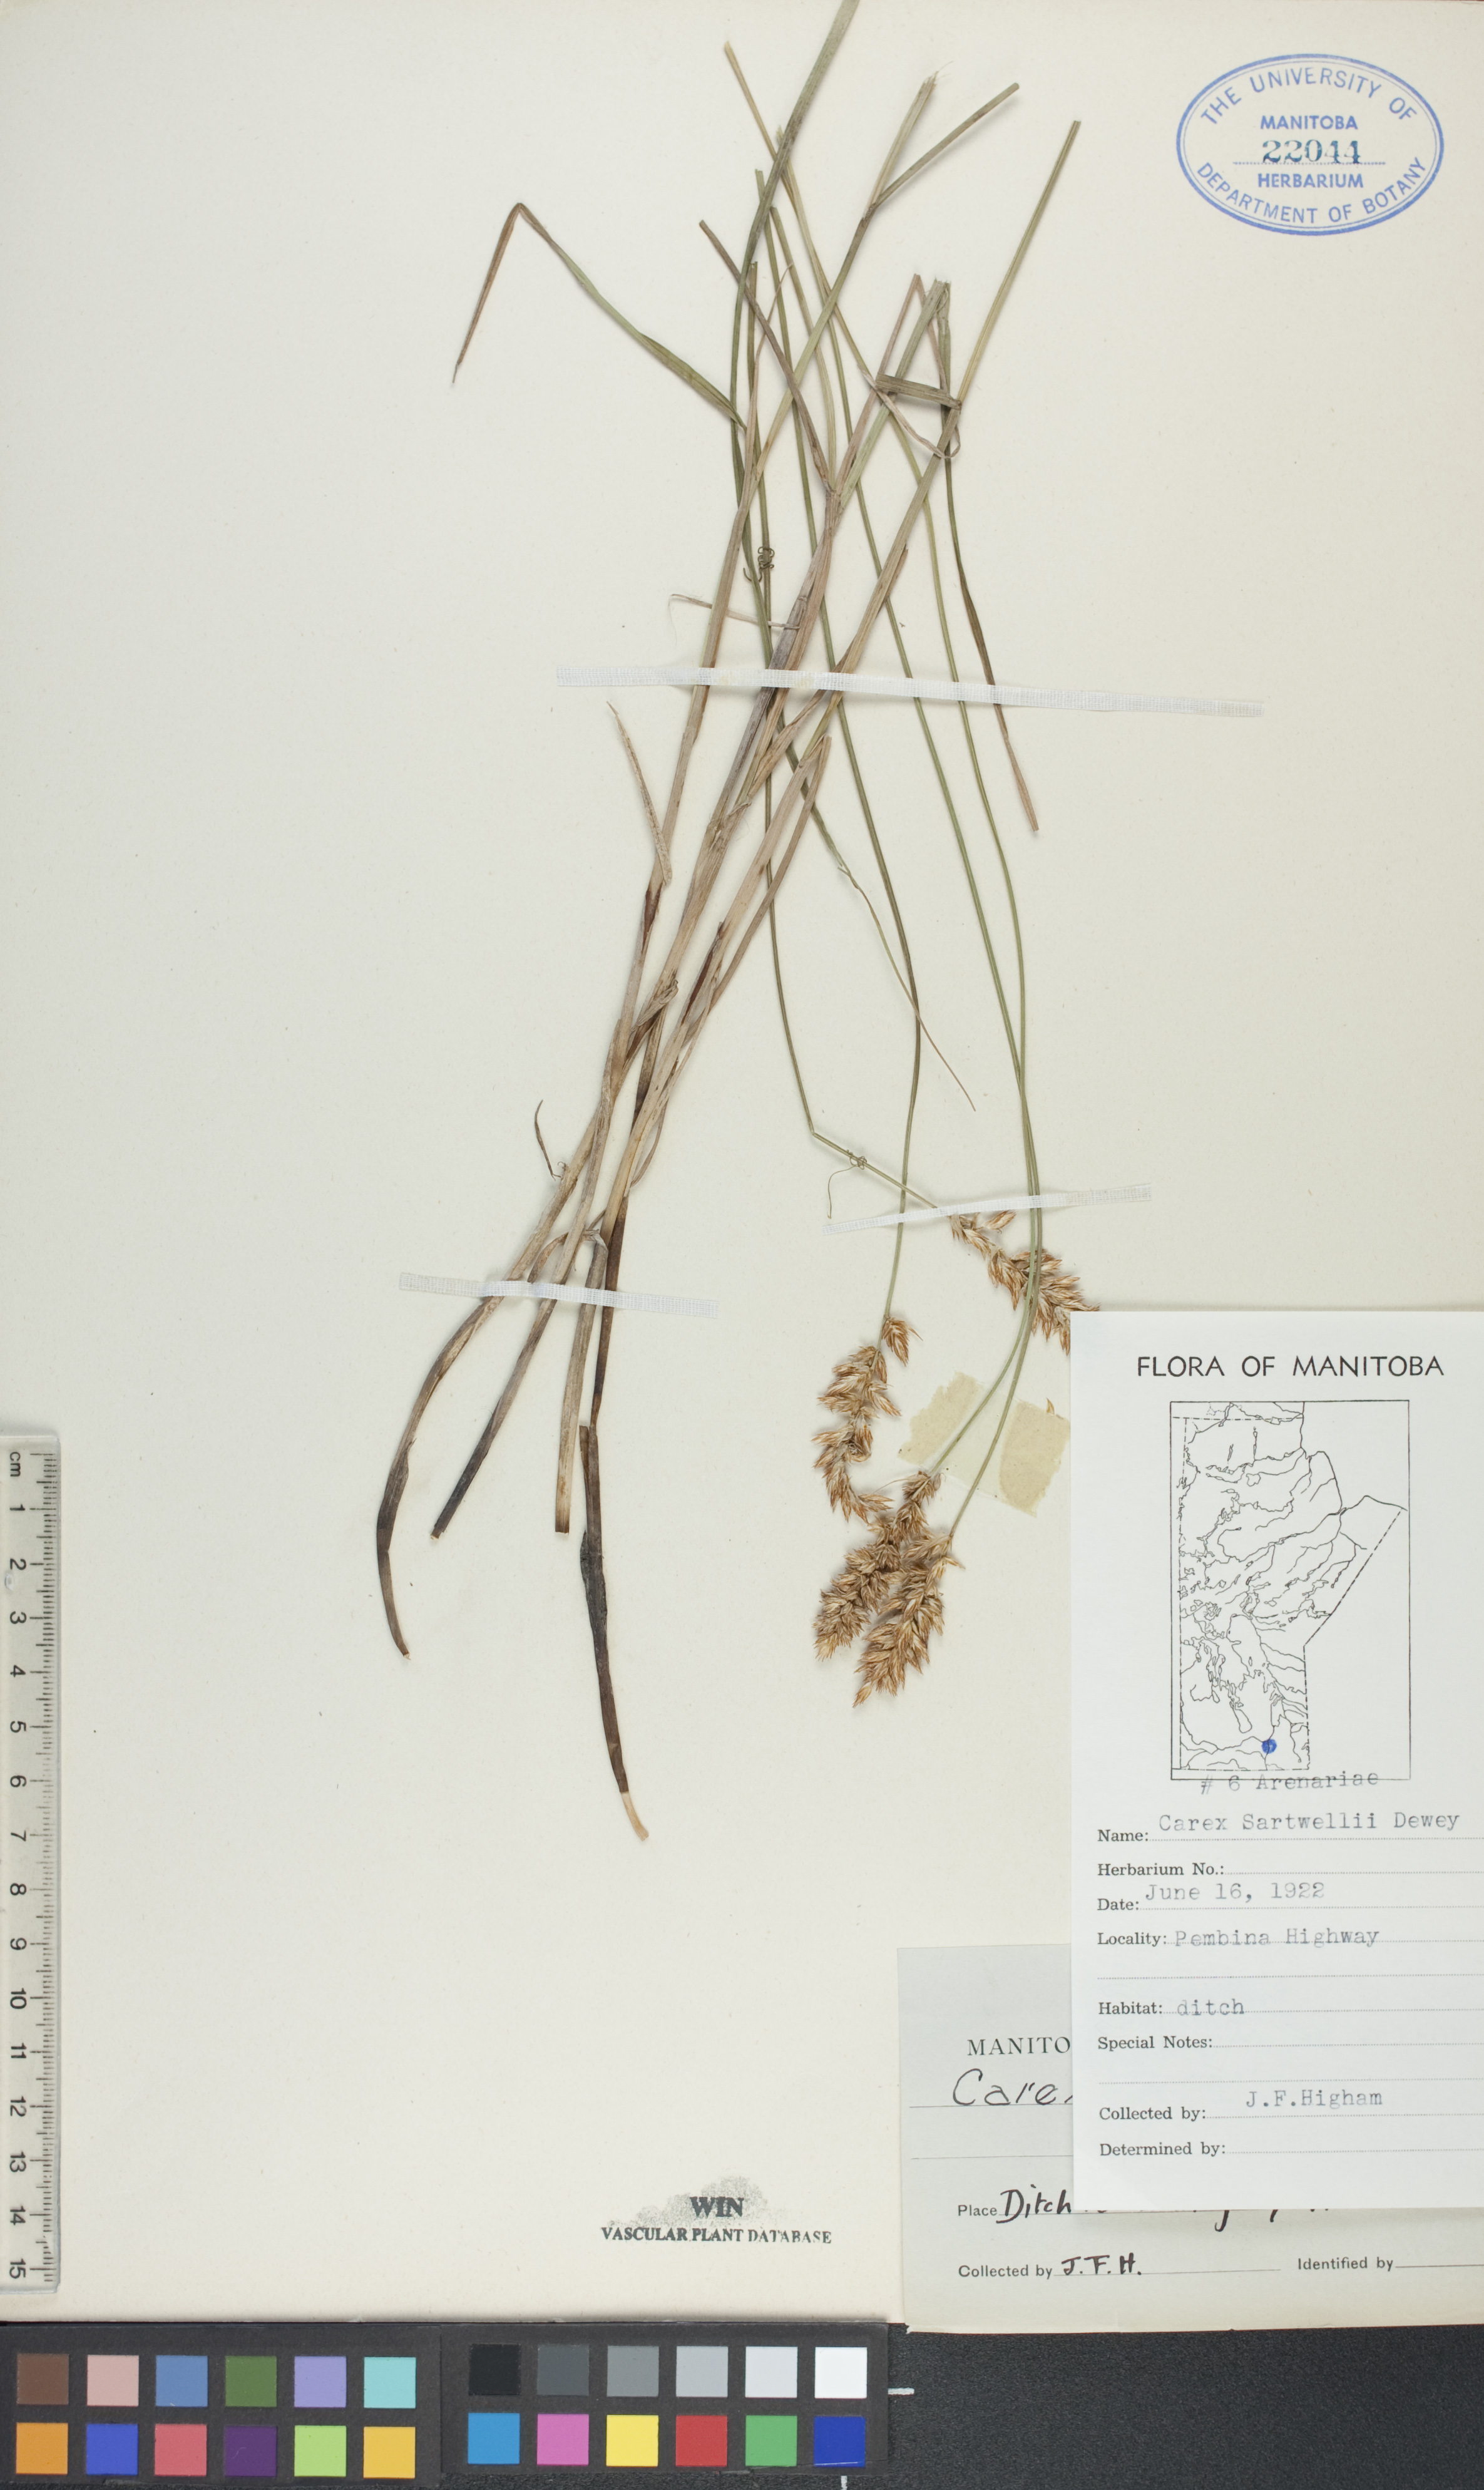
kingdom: Plantae
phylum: Tracheophyta
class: Liliopsida
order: Poales
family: Cyperaceae
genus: Carex
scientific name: Carex sartwellii
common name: Sartwell's sedge
